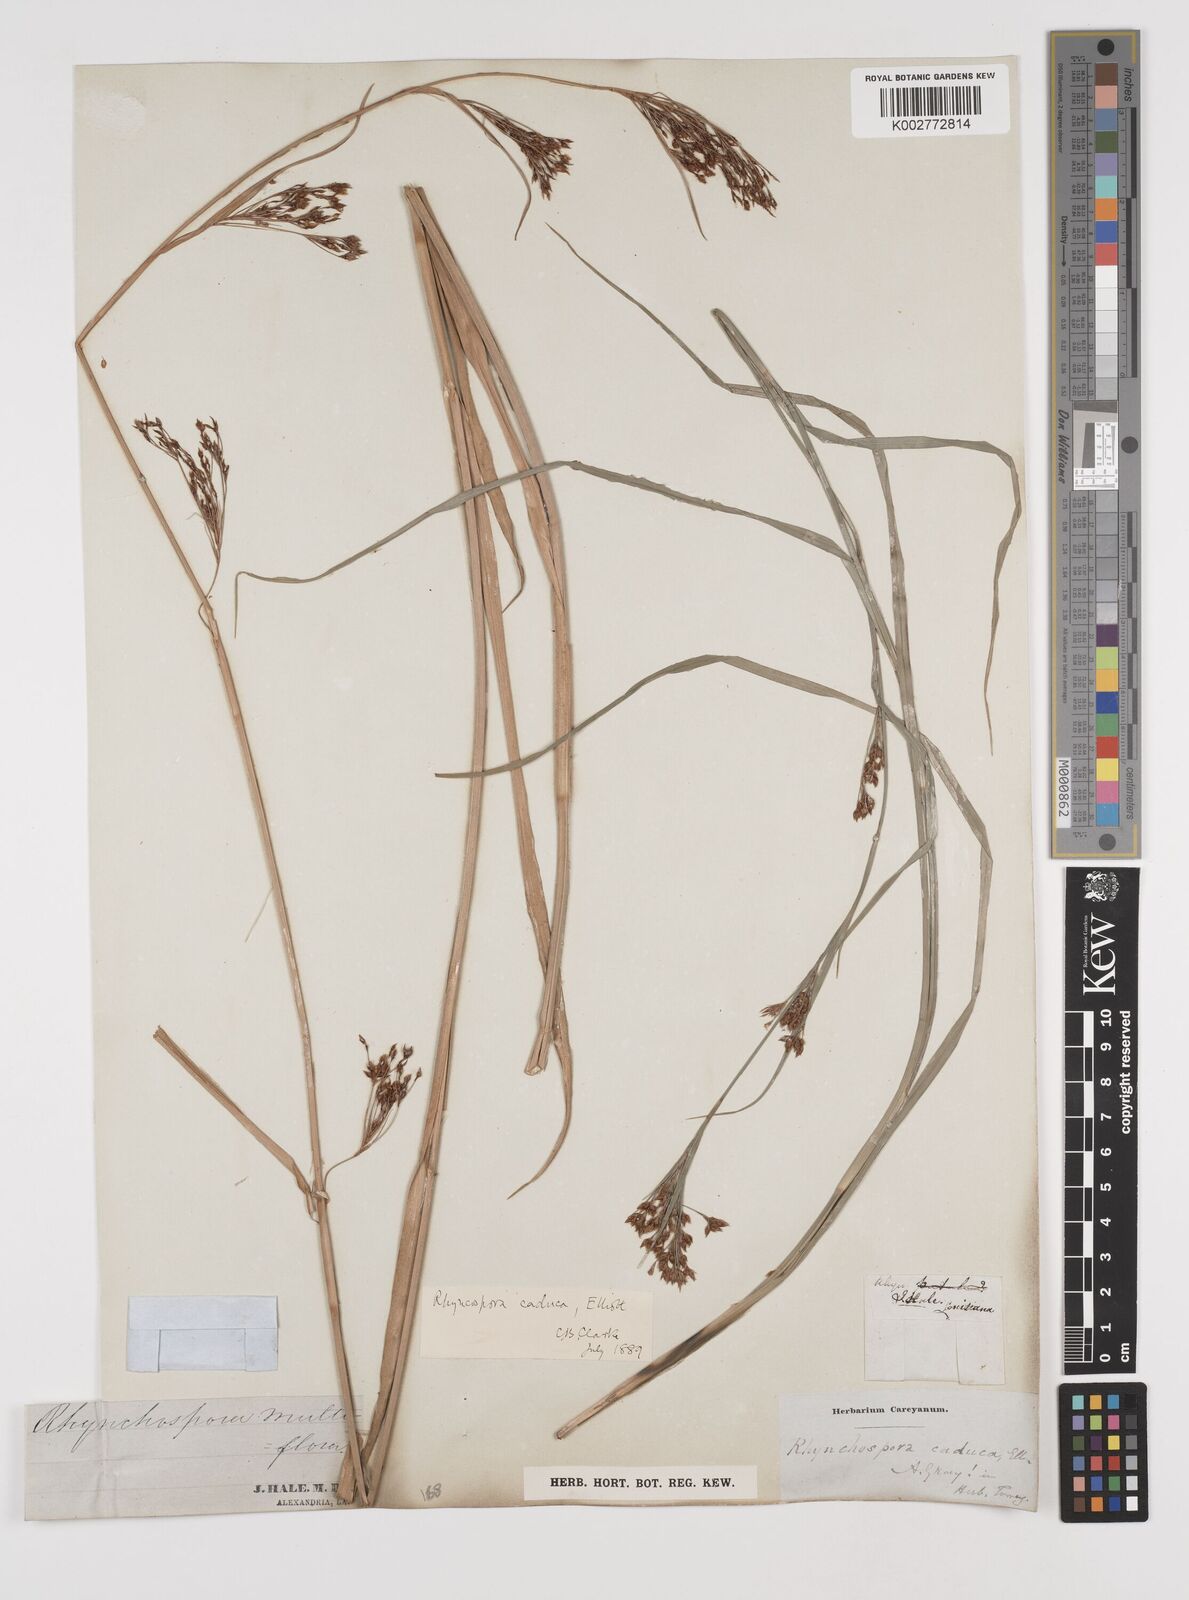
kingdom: Plantae
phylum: Tracheophyta
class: Liliopsida
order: Poales
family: Cyperaceae
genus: Rhynchospora
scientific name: Rhynchospora caduca
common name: Anglestem beaksedge
